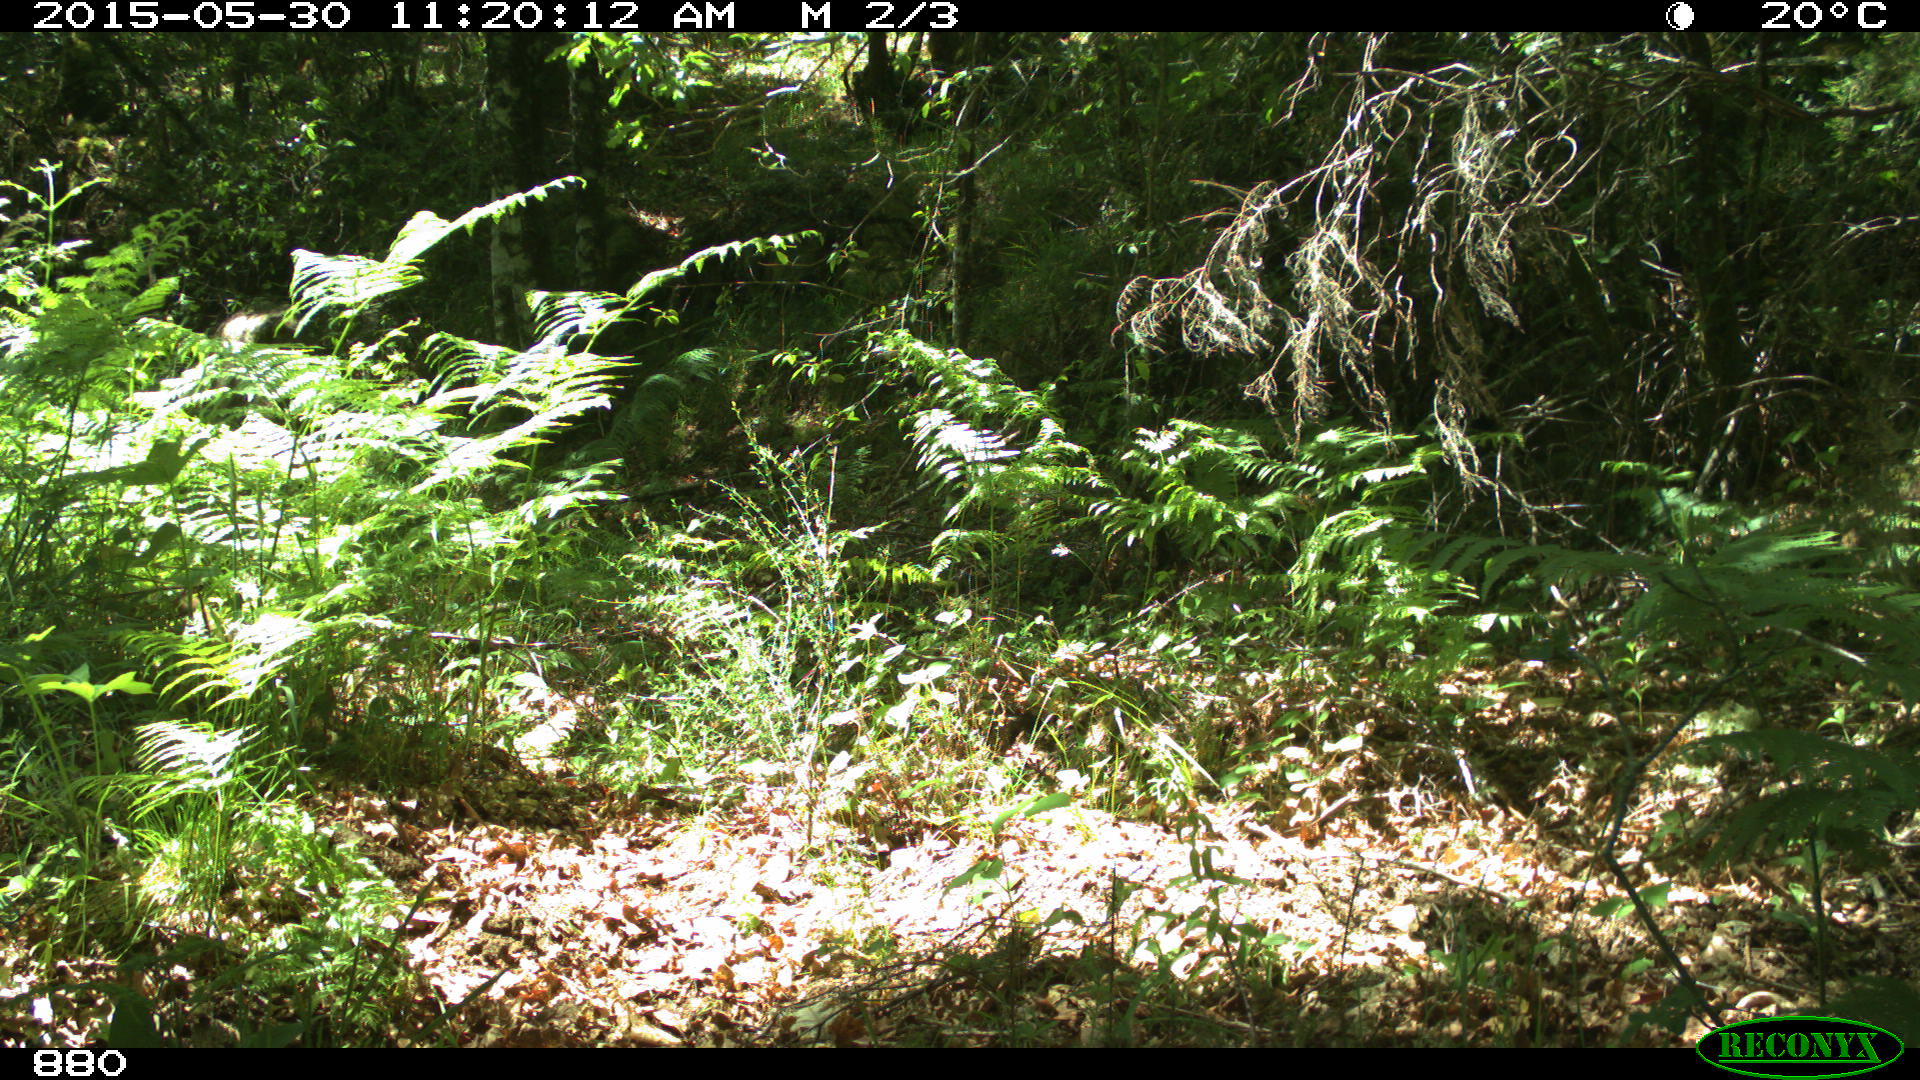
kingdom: Animalia
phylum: Chordata
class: Mammalia
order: Artiodactyla
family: Cervidae
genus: Capreolus
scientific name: Capreolus capreolus
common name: Western roe deer
